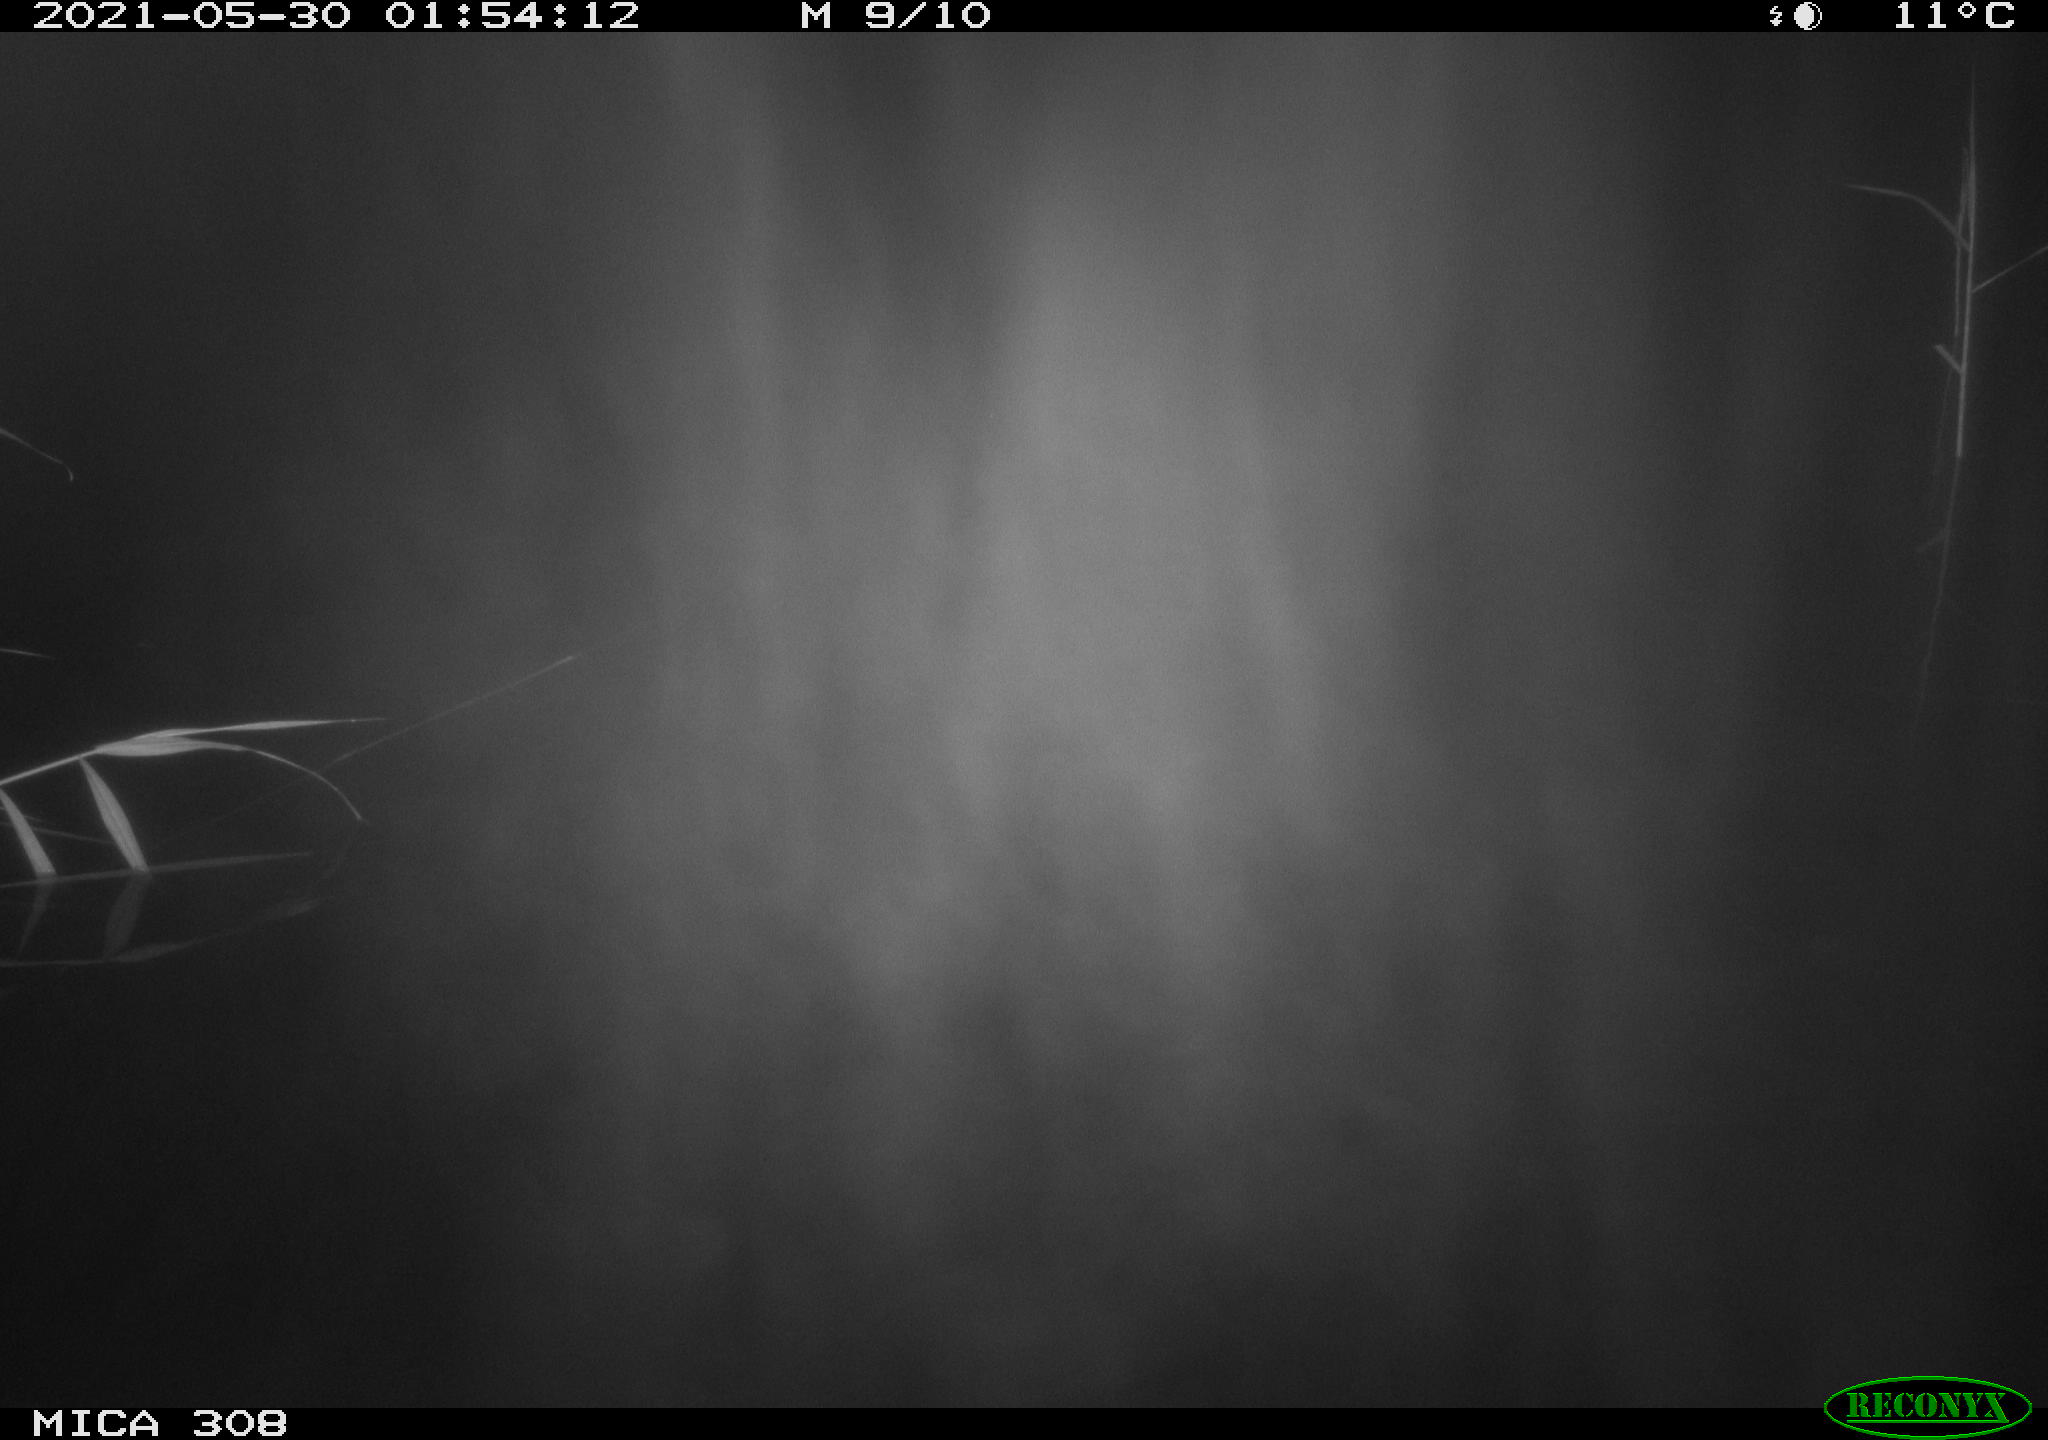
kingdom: Animalia
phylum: Chordata
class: Aves
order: Anseriformes
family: Anatidae
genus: Anas
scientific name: Anas platyrhynchos
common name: Mallard
